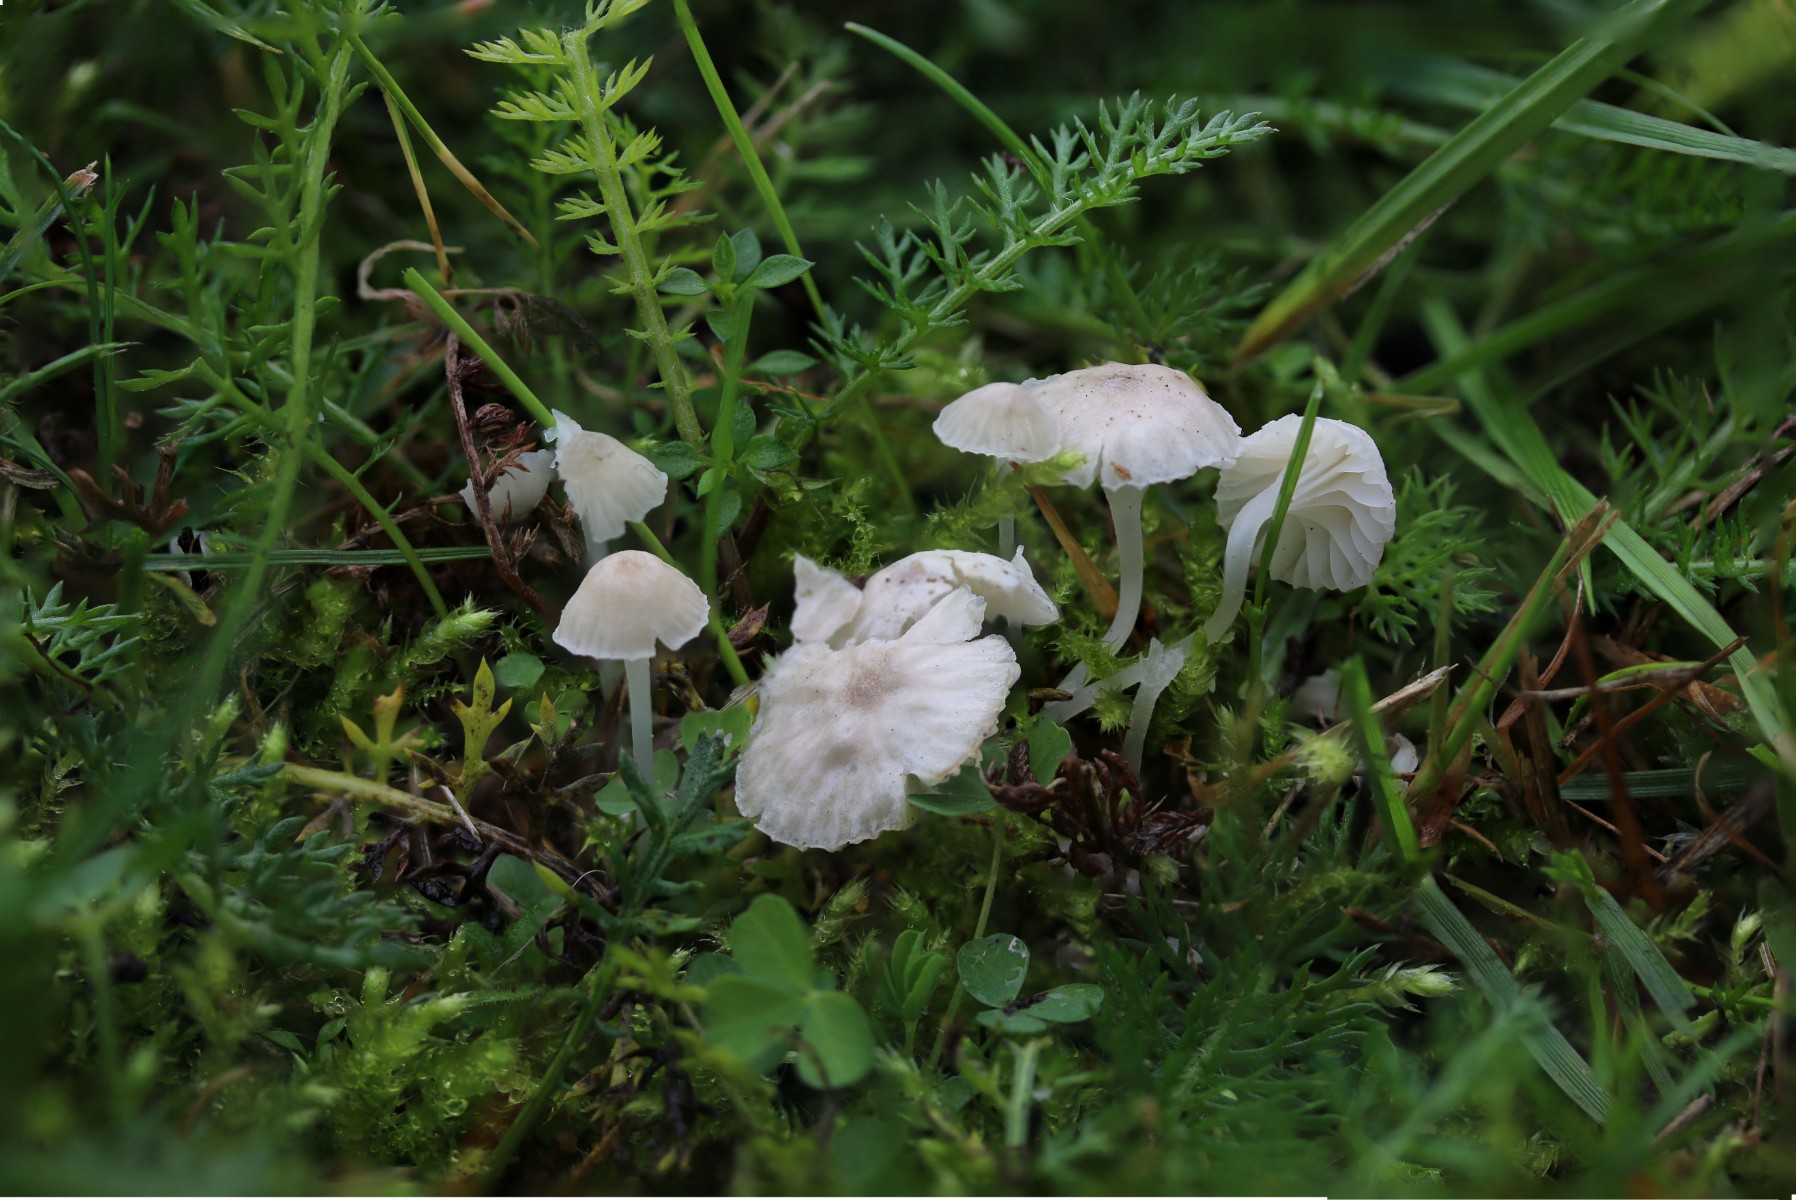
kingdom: Fungi
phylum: Basidiomycota
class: Agaricomycetes
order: Agaricales
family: Mycenaceae
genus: Hemimycena
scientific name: Hemimycena mairei
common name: voks-huesvamp
